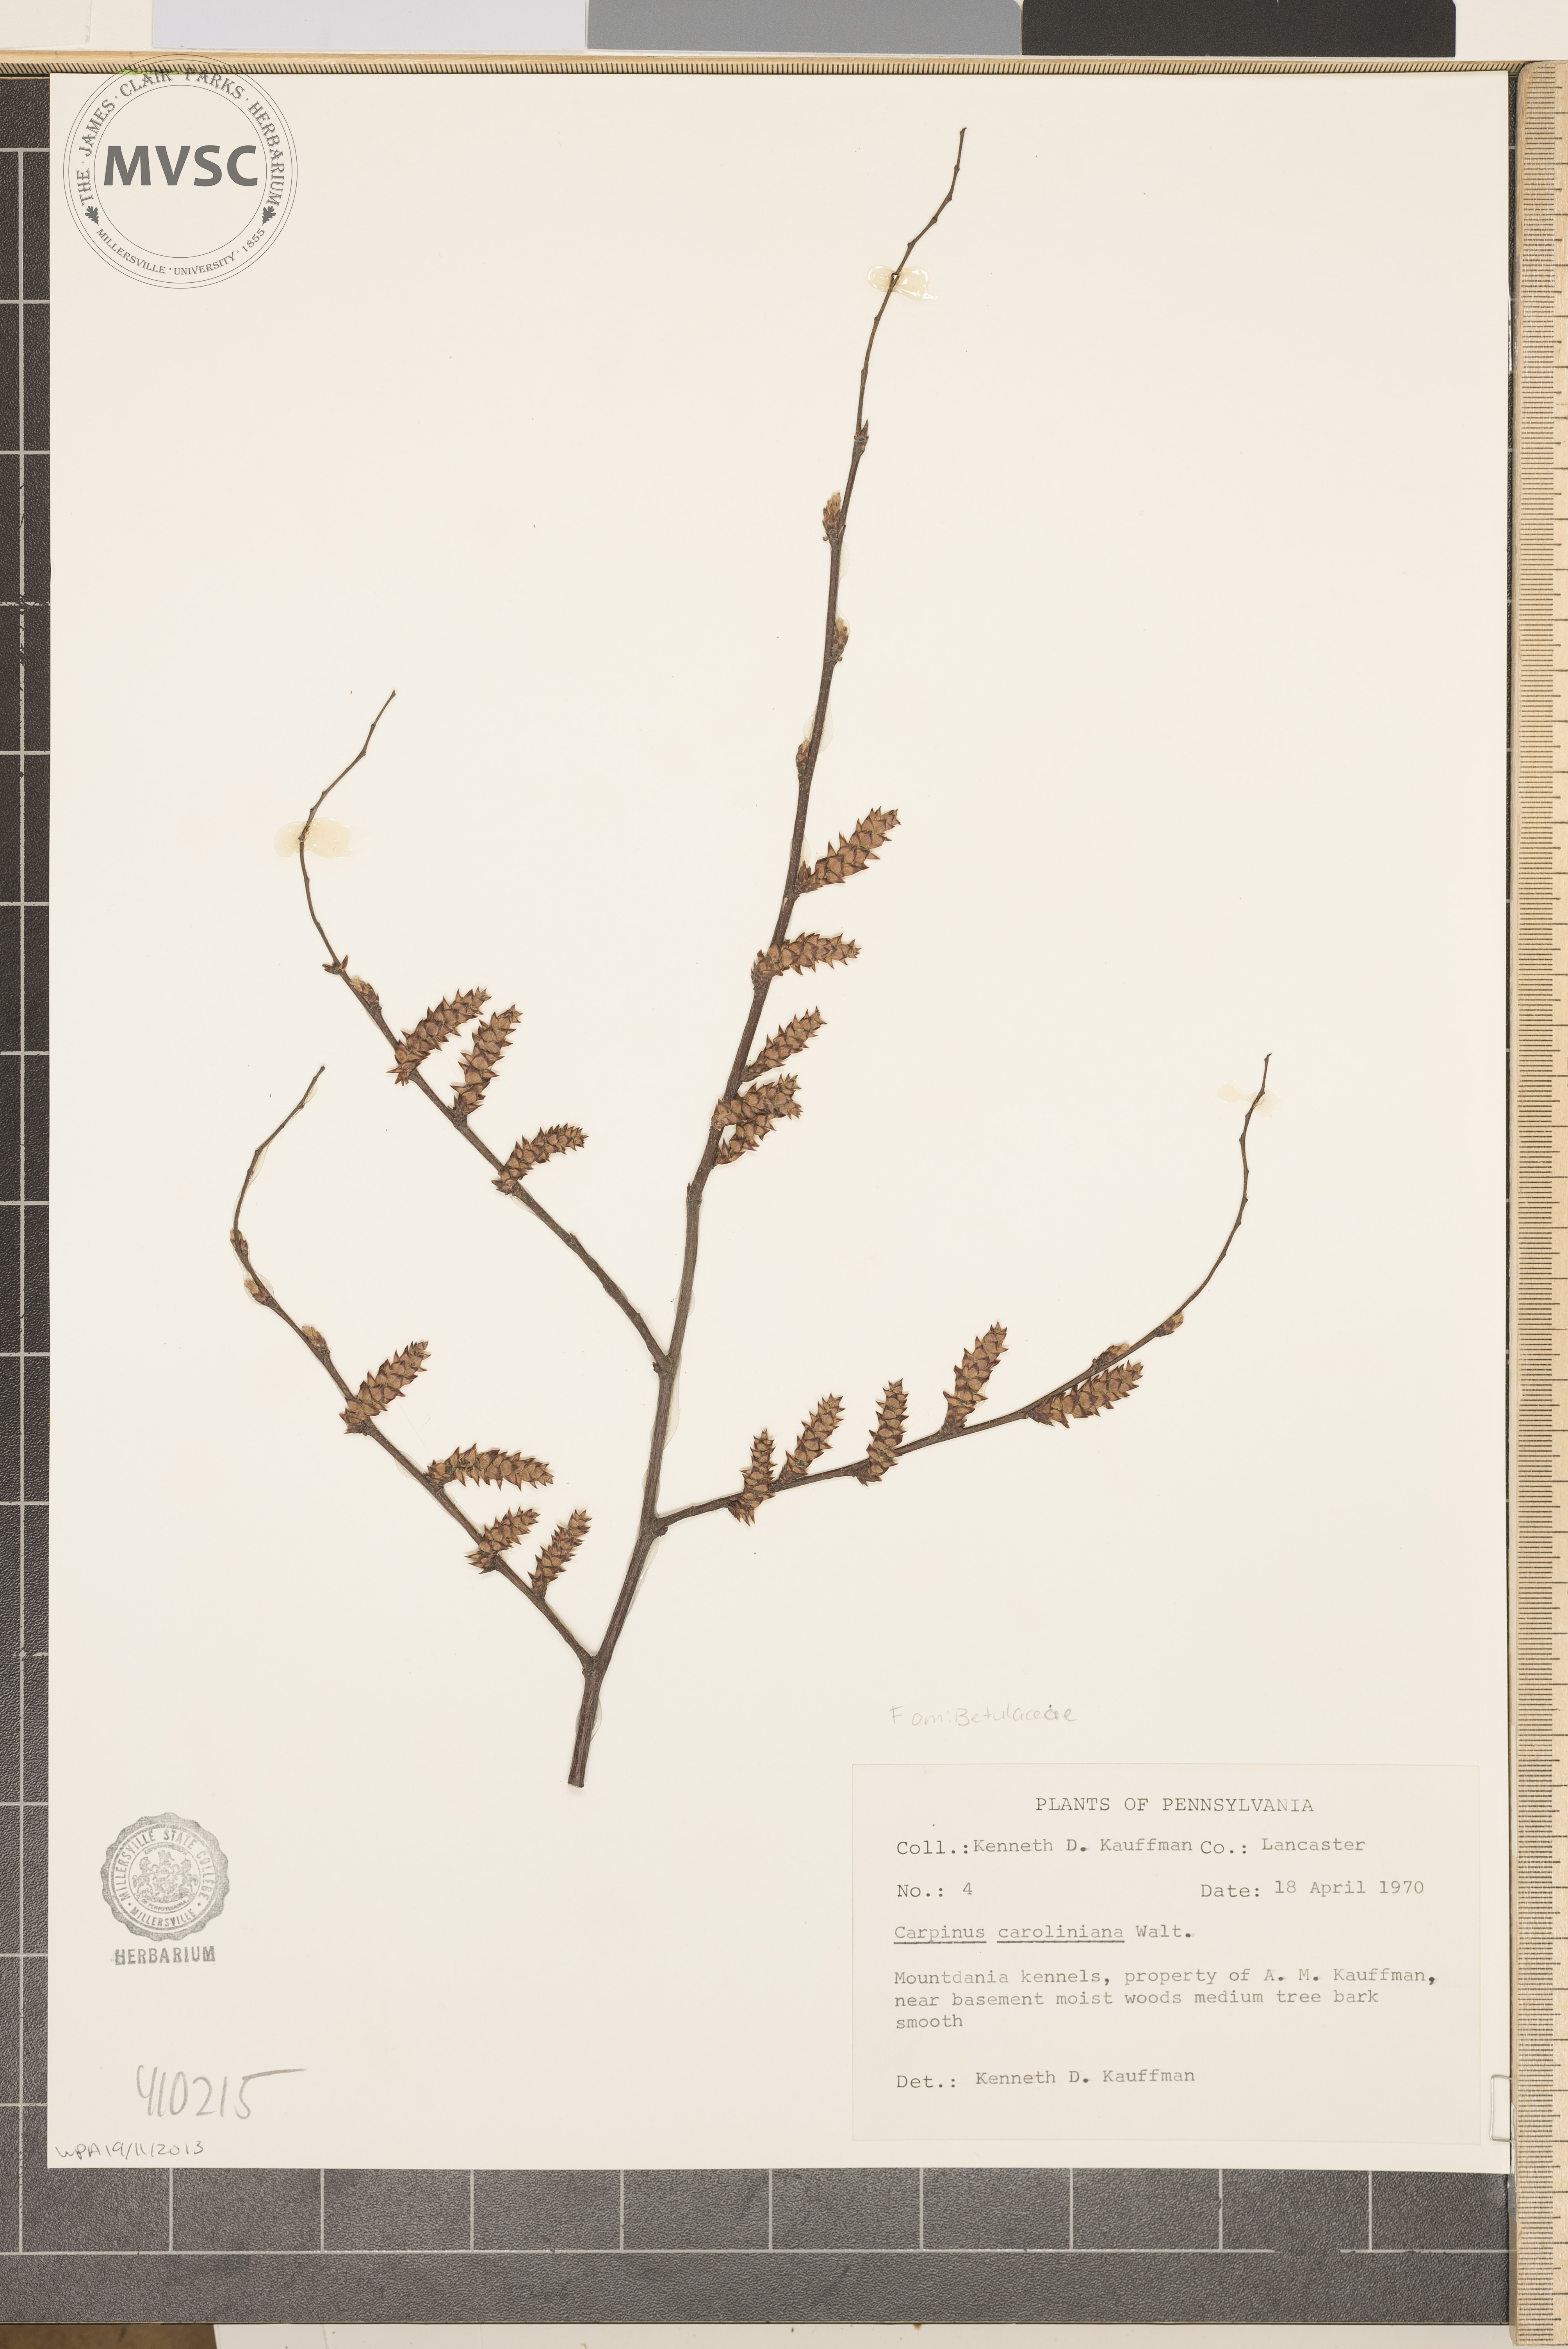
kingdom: Plantae
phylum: Tracheophyta
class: Magnoliopsida
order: Fagales
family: Betulaceae
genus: Carpinus
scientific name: Carpinus caroliniana
